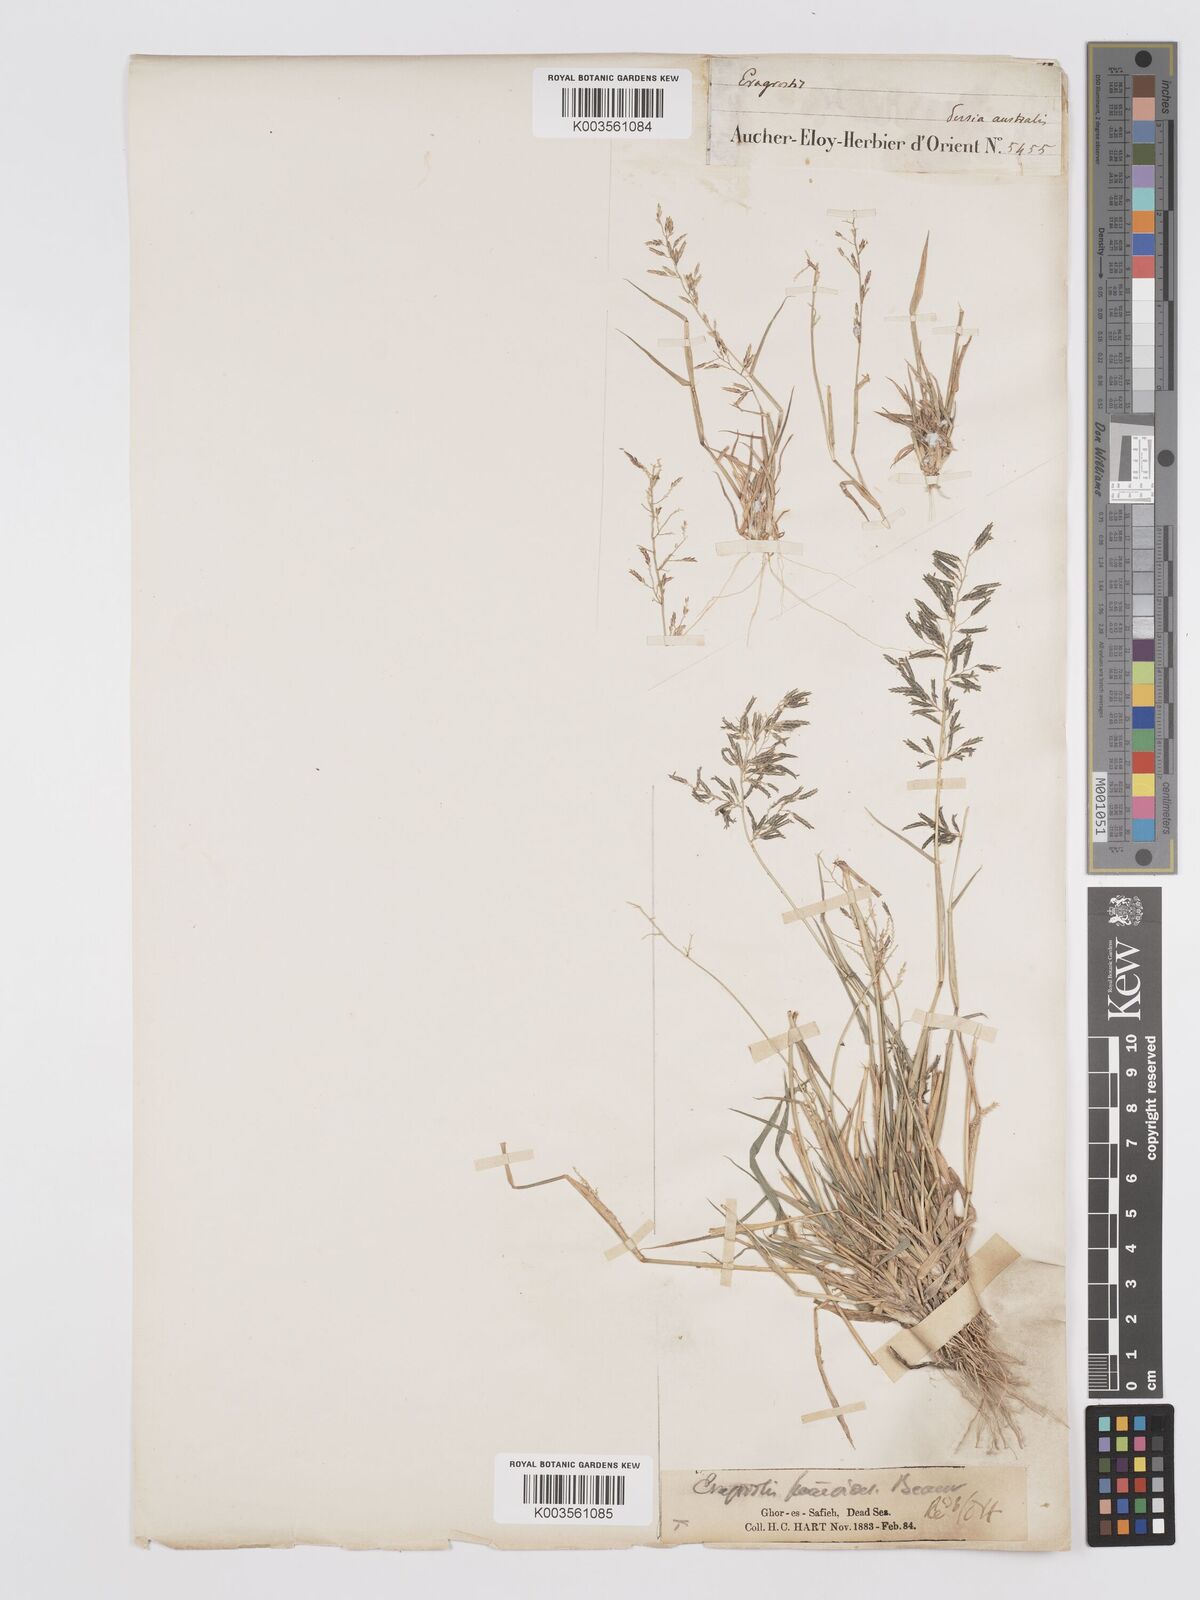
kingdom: Plantae
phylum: Tracheophyta
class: Liliopsida
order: Poales
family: Poaceae
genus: Eragrostis
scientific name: Eragrostis barrelieri
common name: Mediterranean lovegrass
